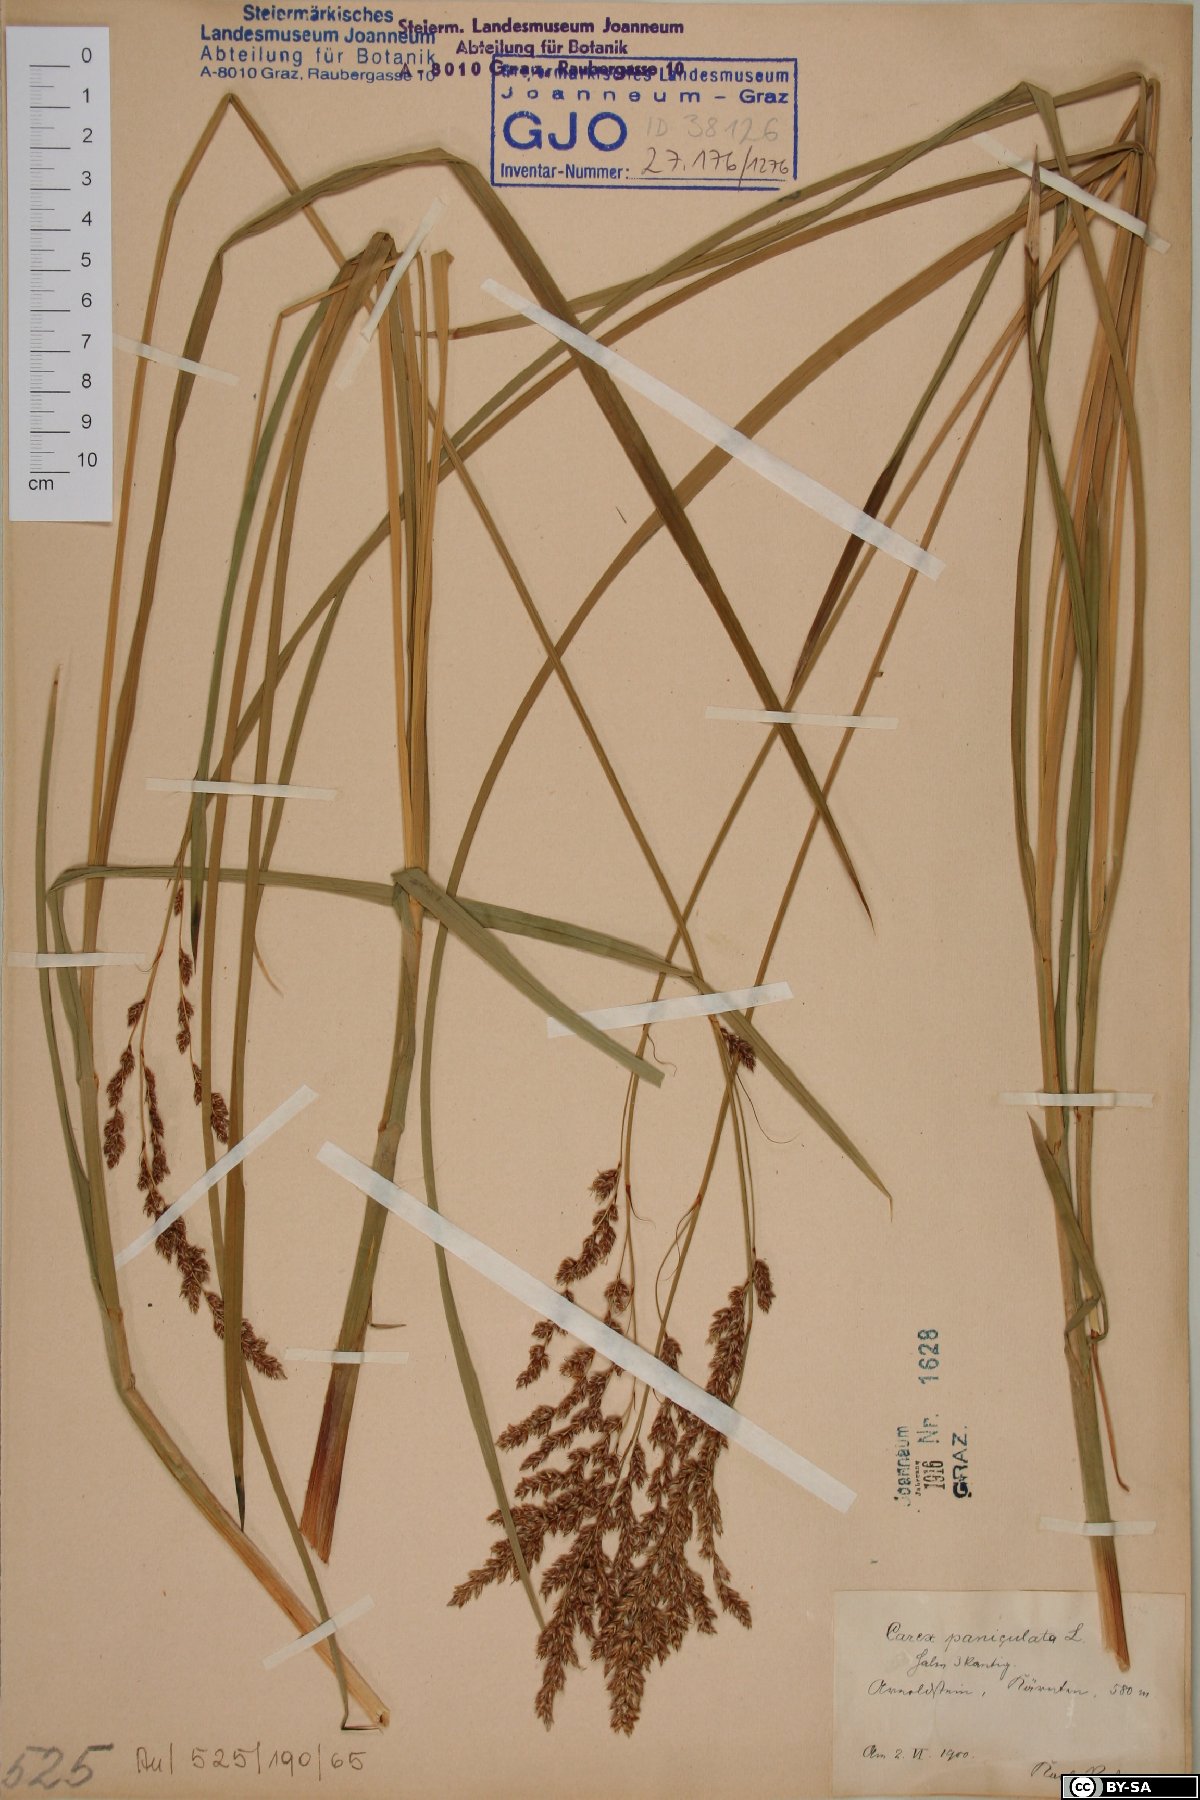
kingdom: Plantae
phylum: Tracheophyta
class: Liliopsida
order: Poales
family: Cyperaceae
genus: Carex
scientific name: Carex paniculata
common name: Greater tussock-sedge
